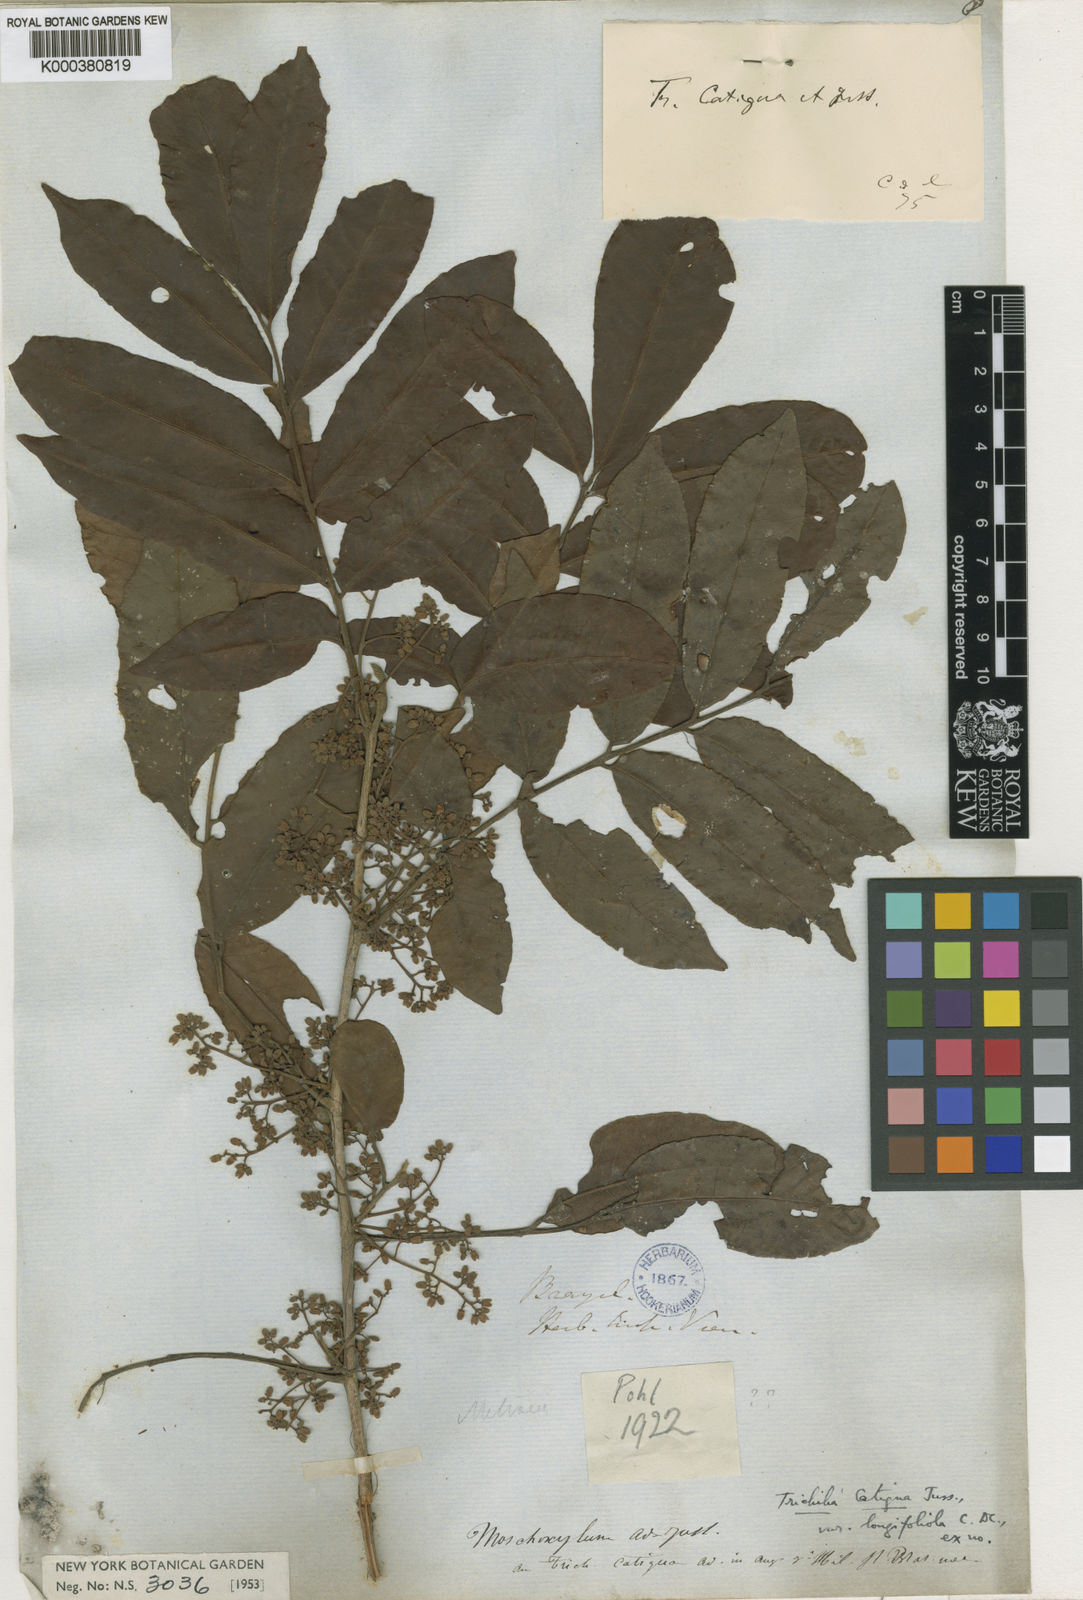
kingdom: Plantae
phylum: Tracheophyta
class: Magnoliopsida
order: Sapindales
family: Meliaceae
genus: Trichilia
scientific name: Trichilia catigua
